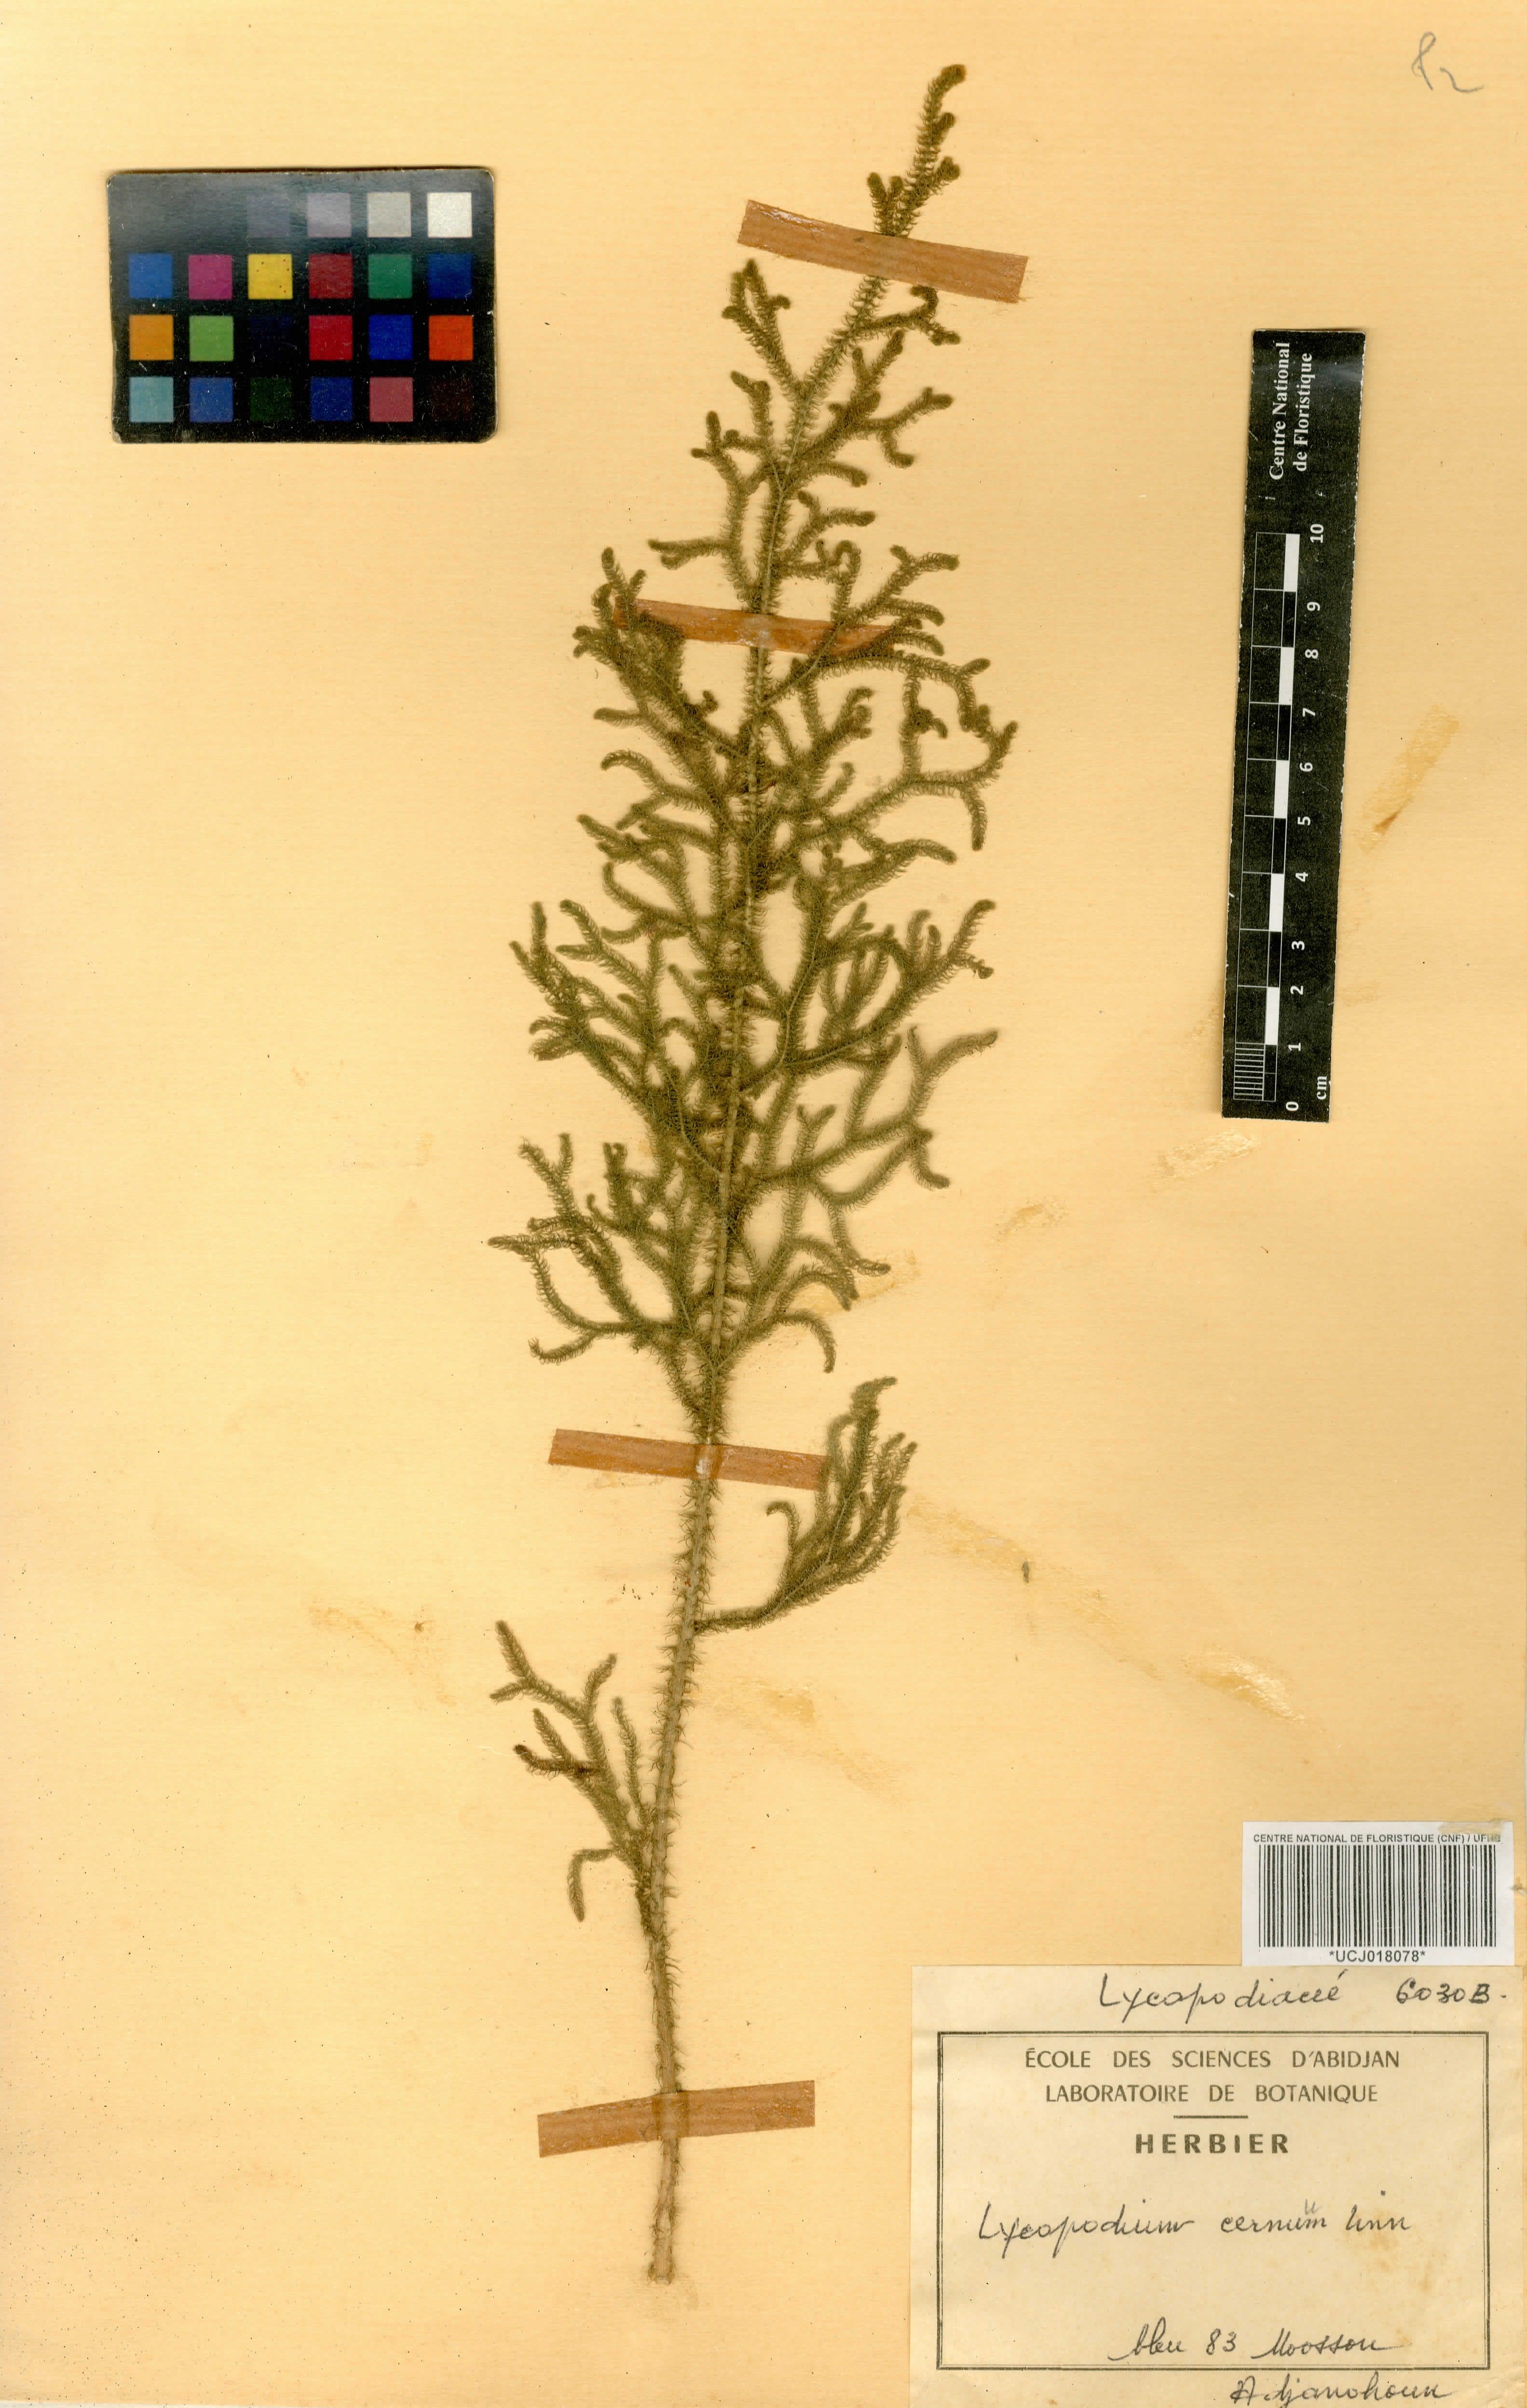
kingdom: Plantae
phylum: Tracheophyta
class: Lycopodiopsida
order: Lycopodiales
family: Lycopodiaceae
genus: Palhinhaea
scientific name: Palhinhaea cernua
